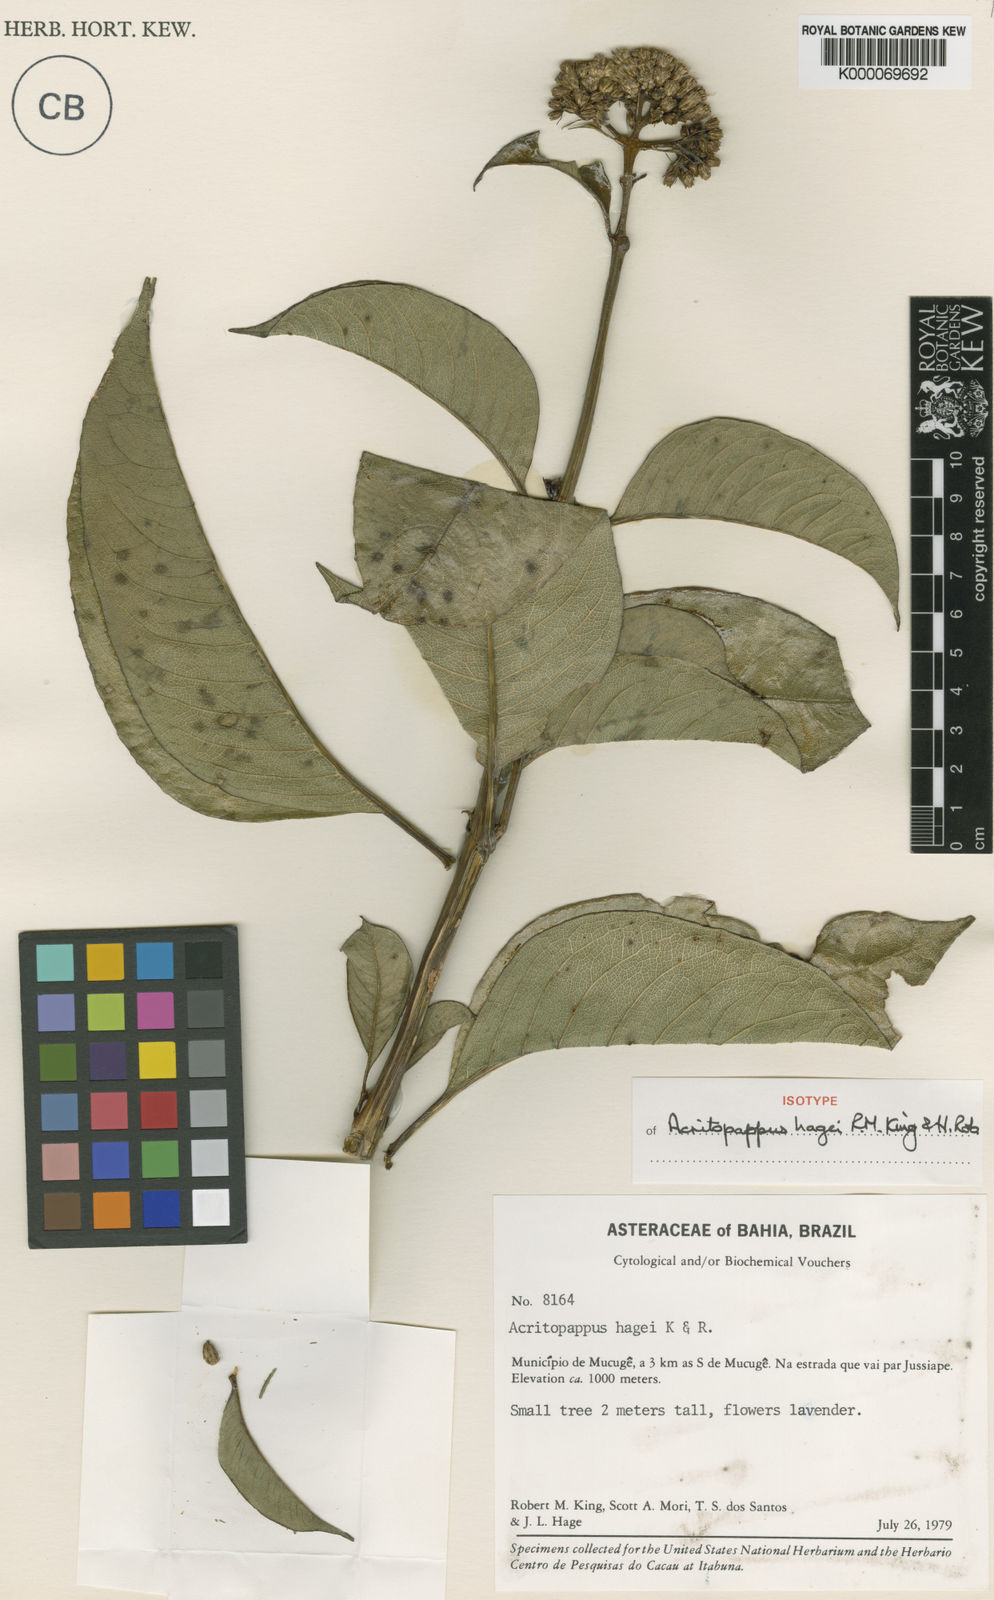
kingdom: Plantae
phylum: Tracheophyta
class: Magnoliopsida
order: Asterales
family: Asteraceae
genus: Acritopappus
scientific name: Acritopappus heterolepis
